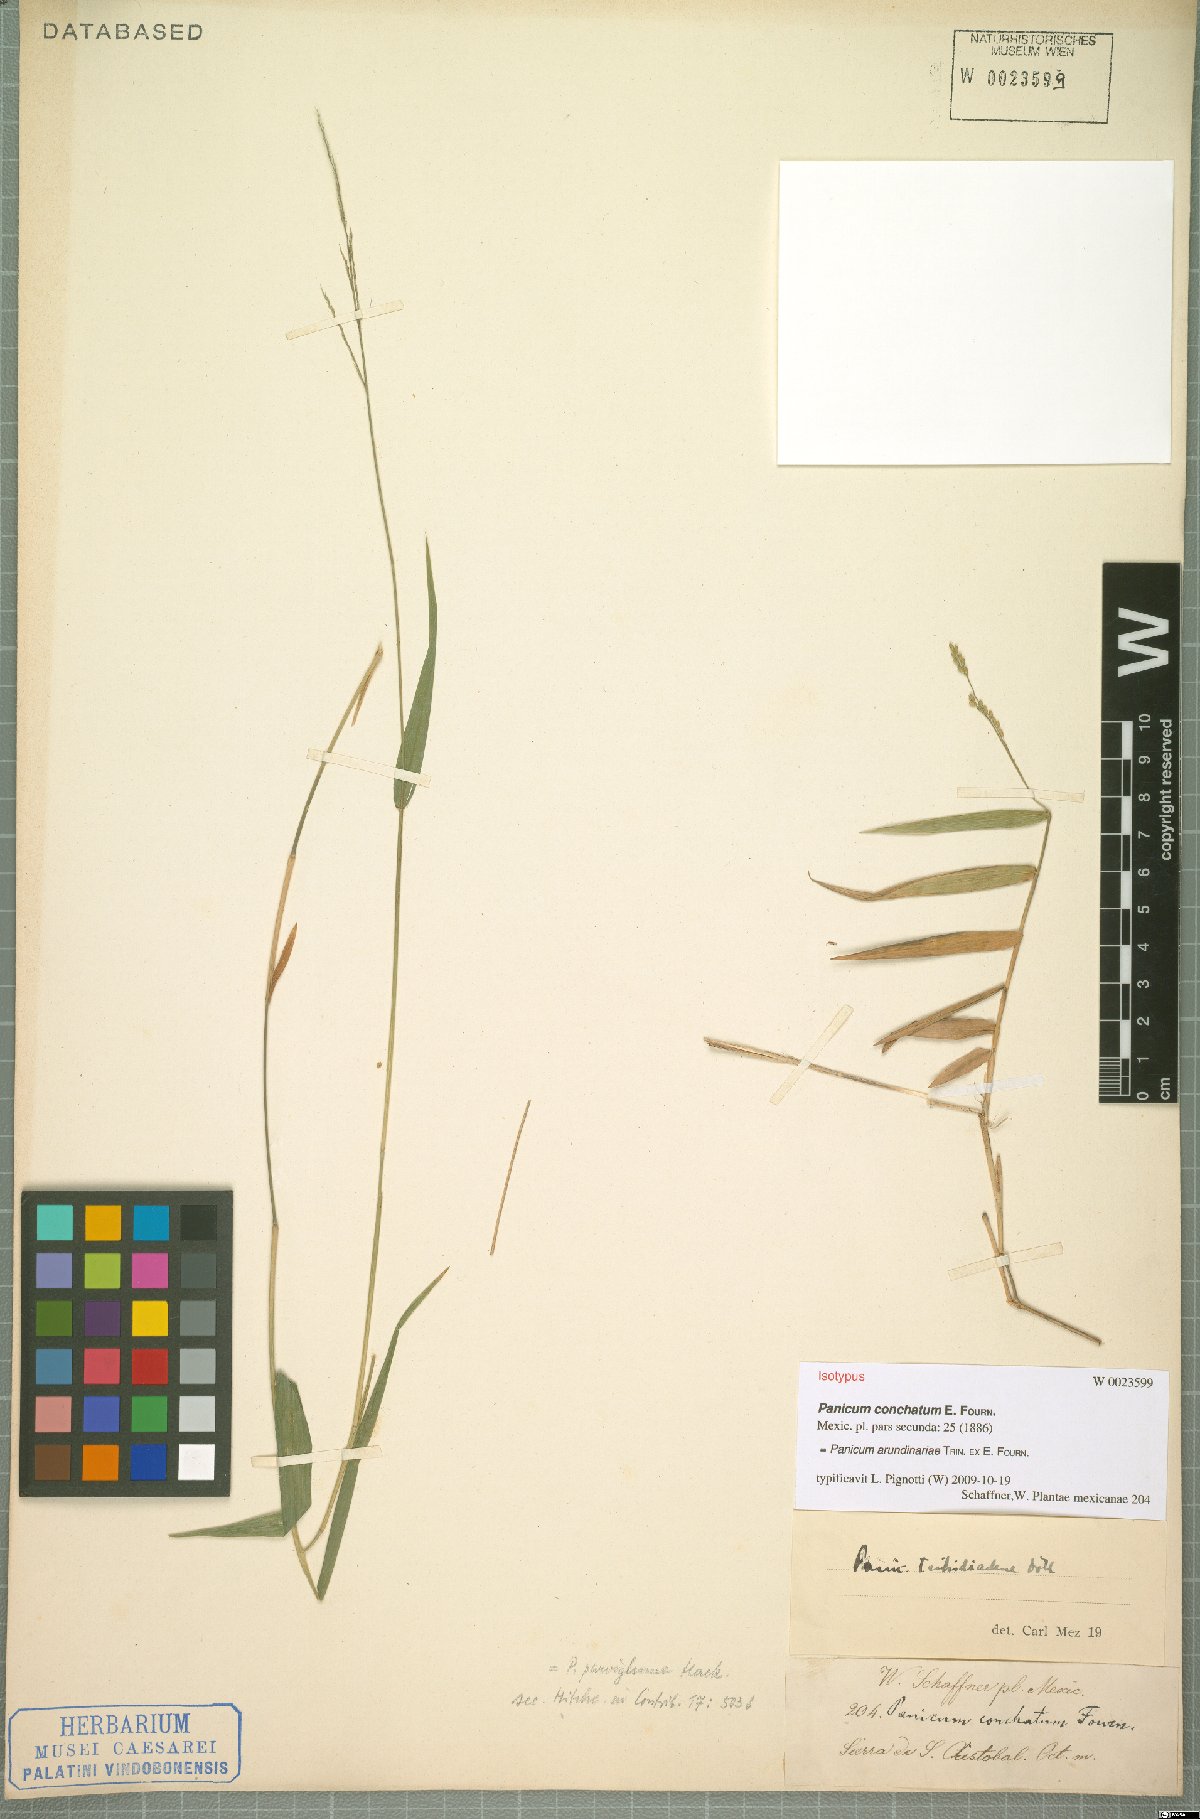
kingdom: Plantae
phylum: Tracheophyta
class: Liliopsida
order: Poales
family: Poaceae
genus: Morronea
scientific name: Morronea arundinariae
